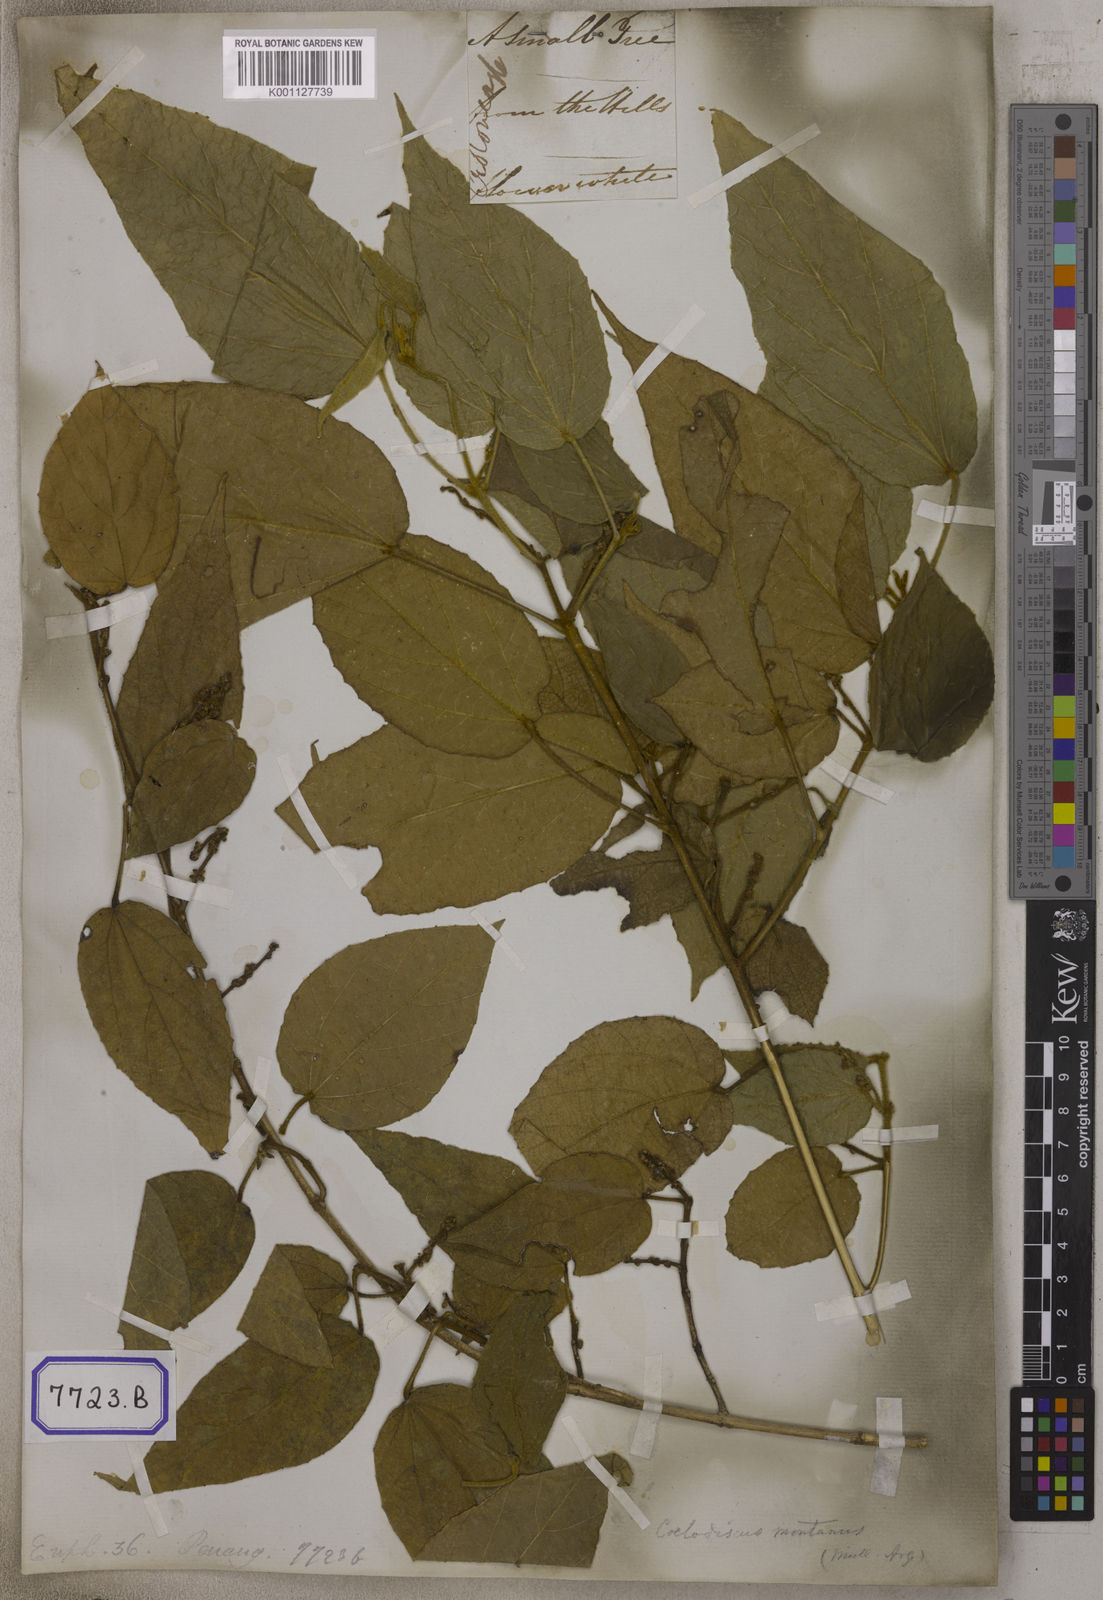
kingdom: Plantae
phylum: Tracheophyta
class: Magnoliopsida
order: Malpighiales
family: Euphorbiaceae
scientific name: Euphorbiaceae
